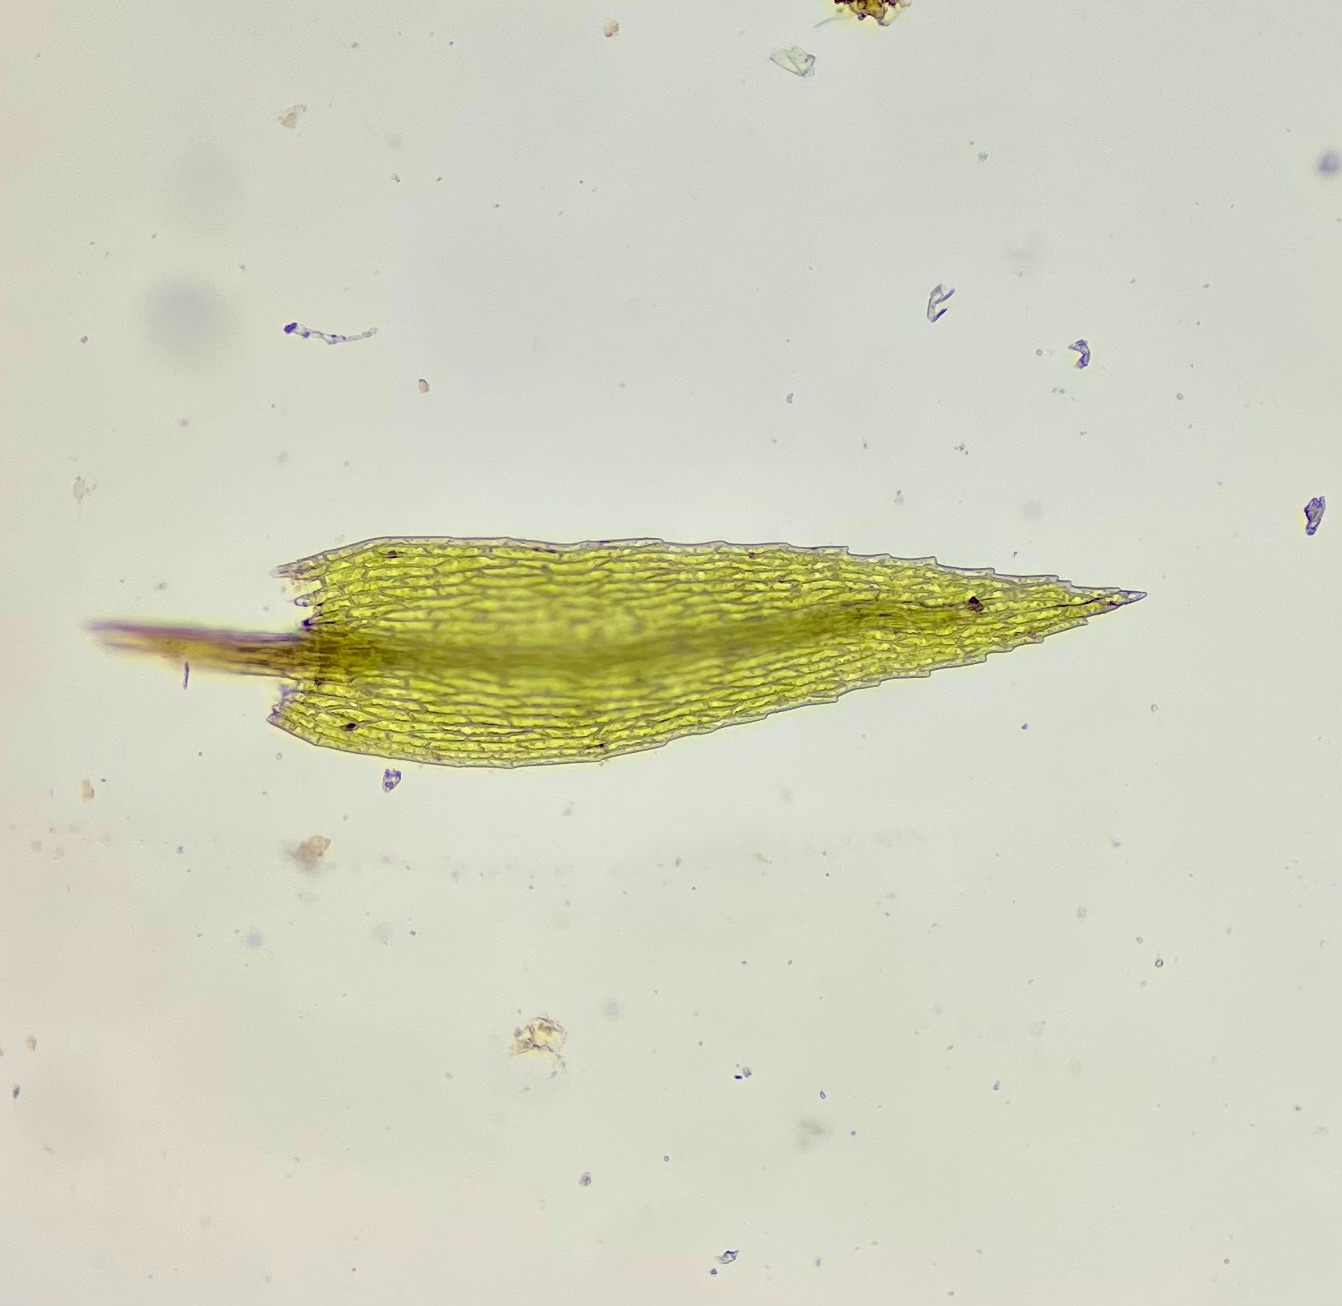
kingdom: Plantae
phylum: Bryophyta
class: Bryopsida
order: Bryales
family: Mniaceae
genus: Pohlia
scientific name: Pohlia bulbifera
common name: Gulkuglet nikkemos
